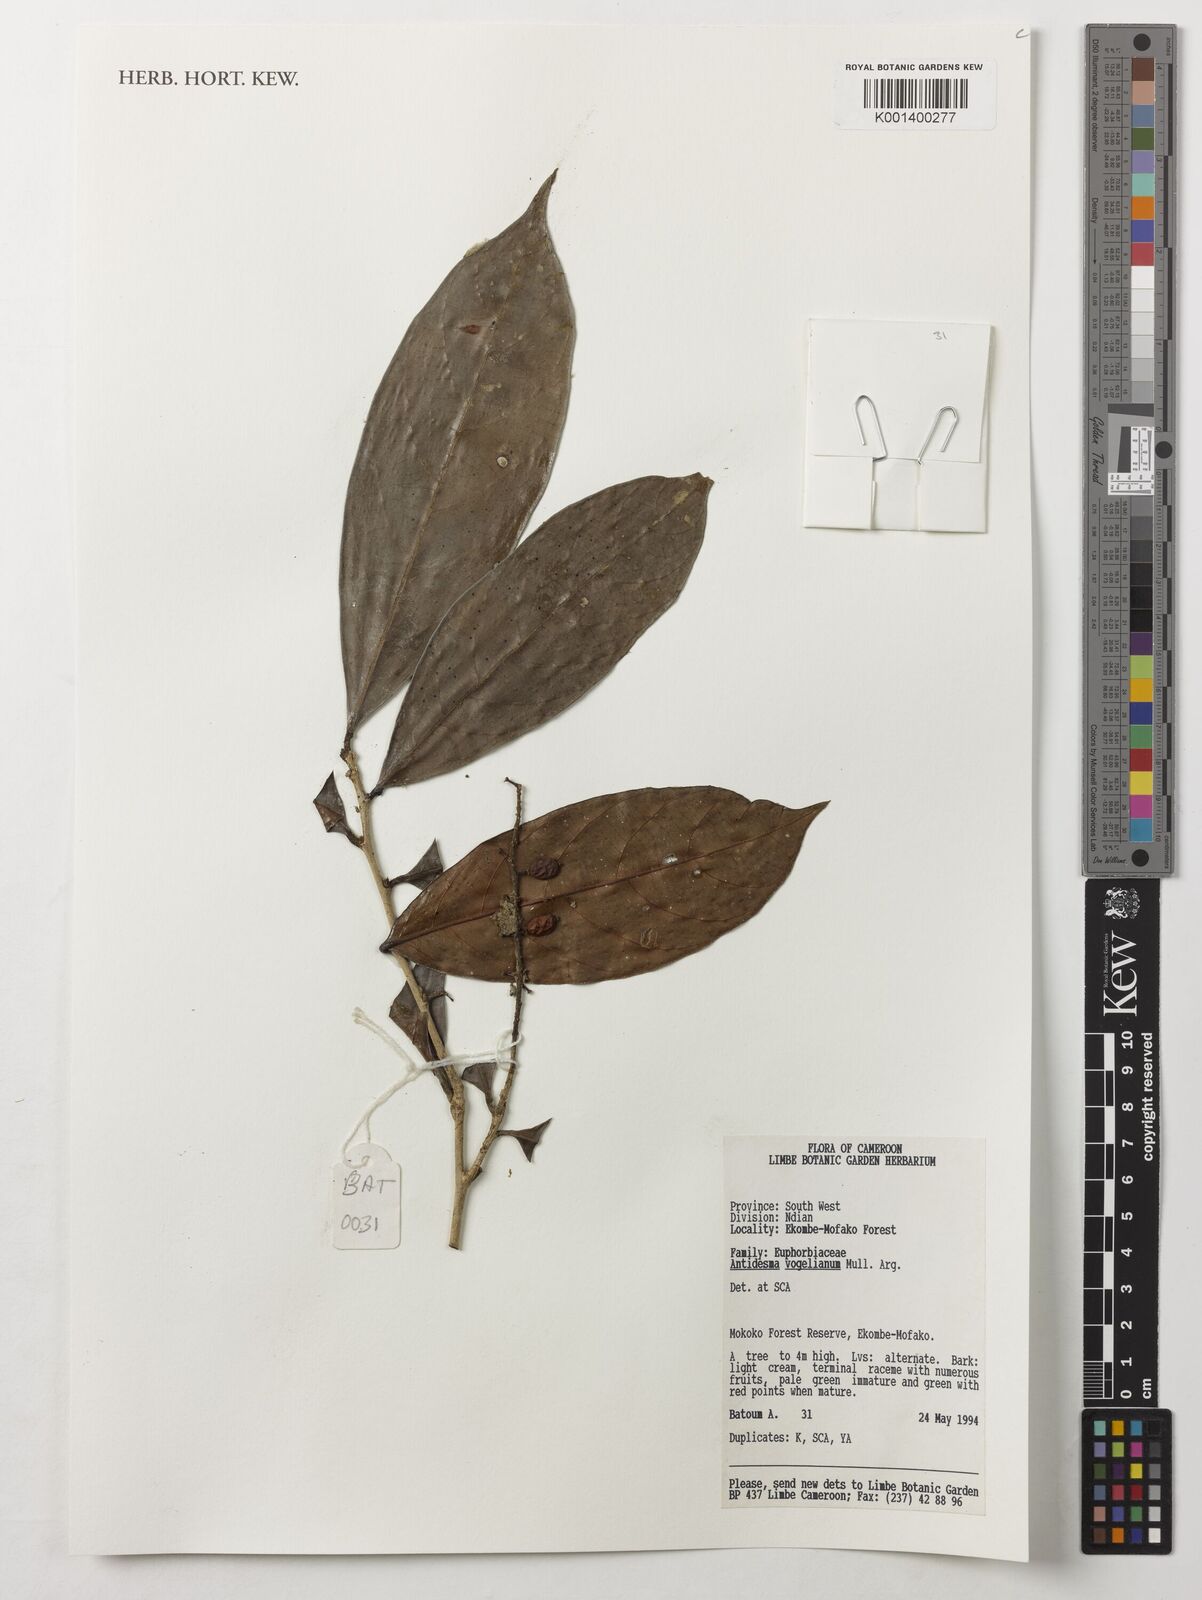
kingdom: Plantae
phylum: Tracheophyta
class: Magnoliopsida
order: Malpighiales
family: Phyllanthaceae
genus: Antidesma
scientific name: Antidesma vogelianum
